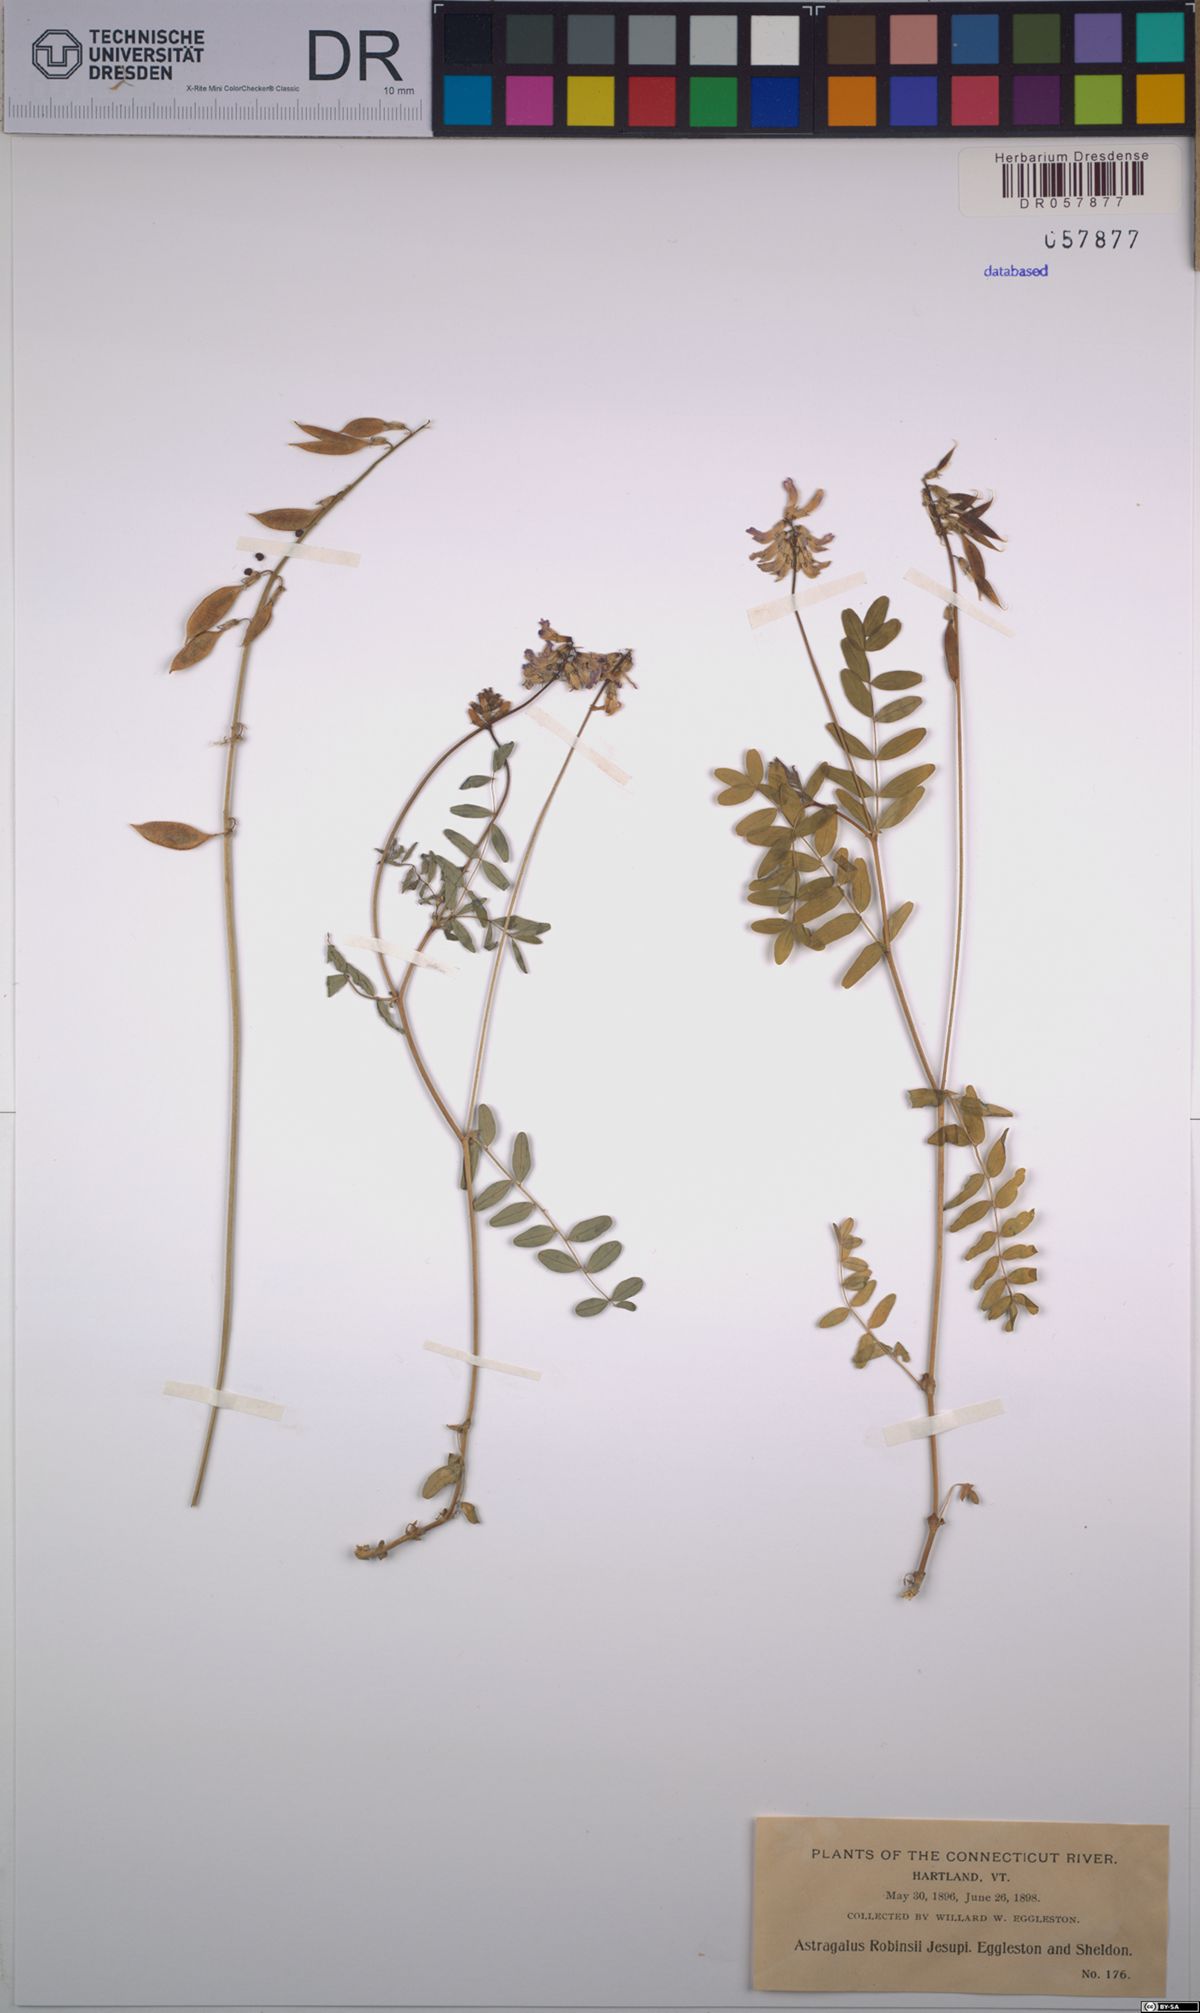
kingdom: Plantae
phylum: Tracheophyta
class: Magnoliopsida
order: Fabales
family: Fabaceae
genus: Astragalus
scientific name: Astragalus robbinsii
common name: Robbins' milk-vetch
